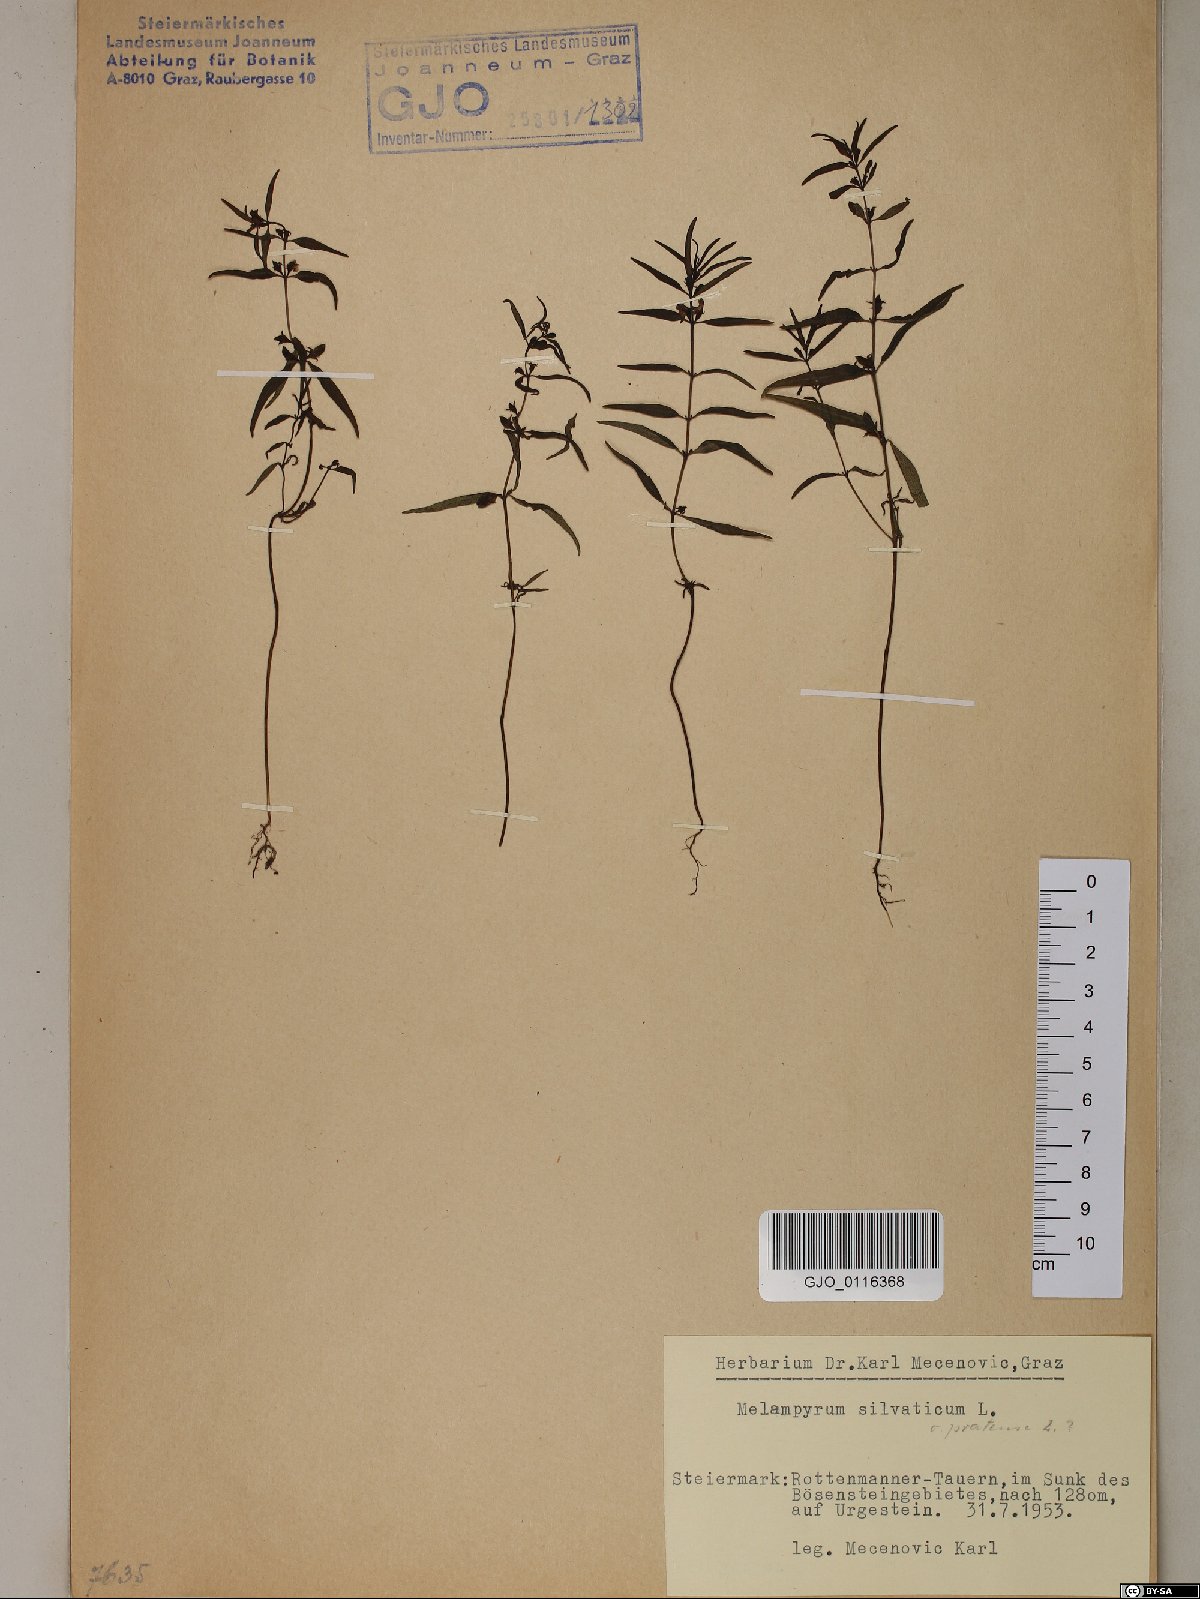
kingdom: Plantae
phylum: Tracheophyta
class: Magnoliopsida
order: Lamiales
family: Orobanchaceae
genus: Melampyrum
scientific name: Melampyrum sylvaticum
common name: Small cow-wheat
